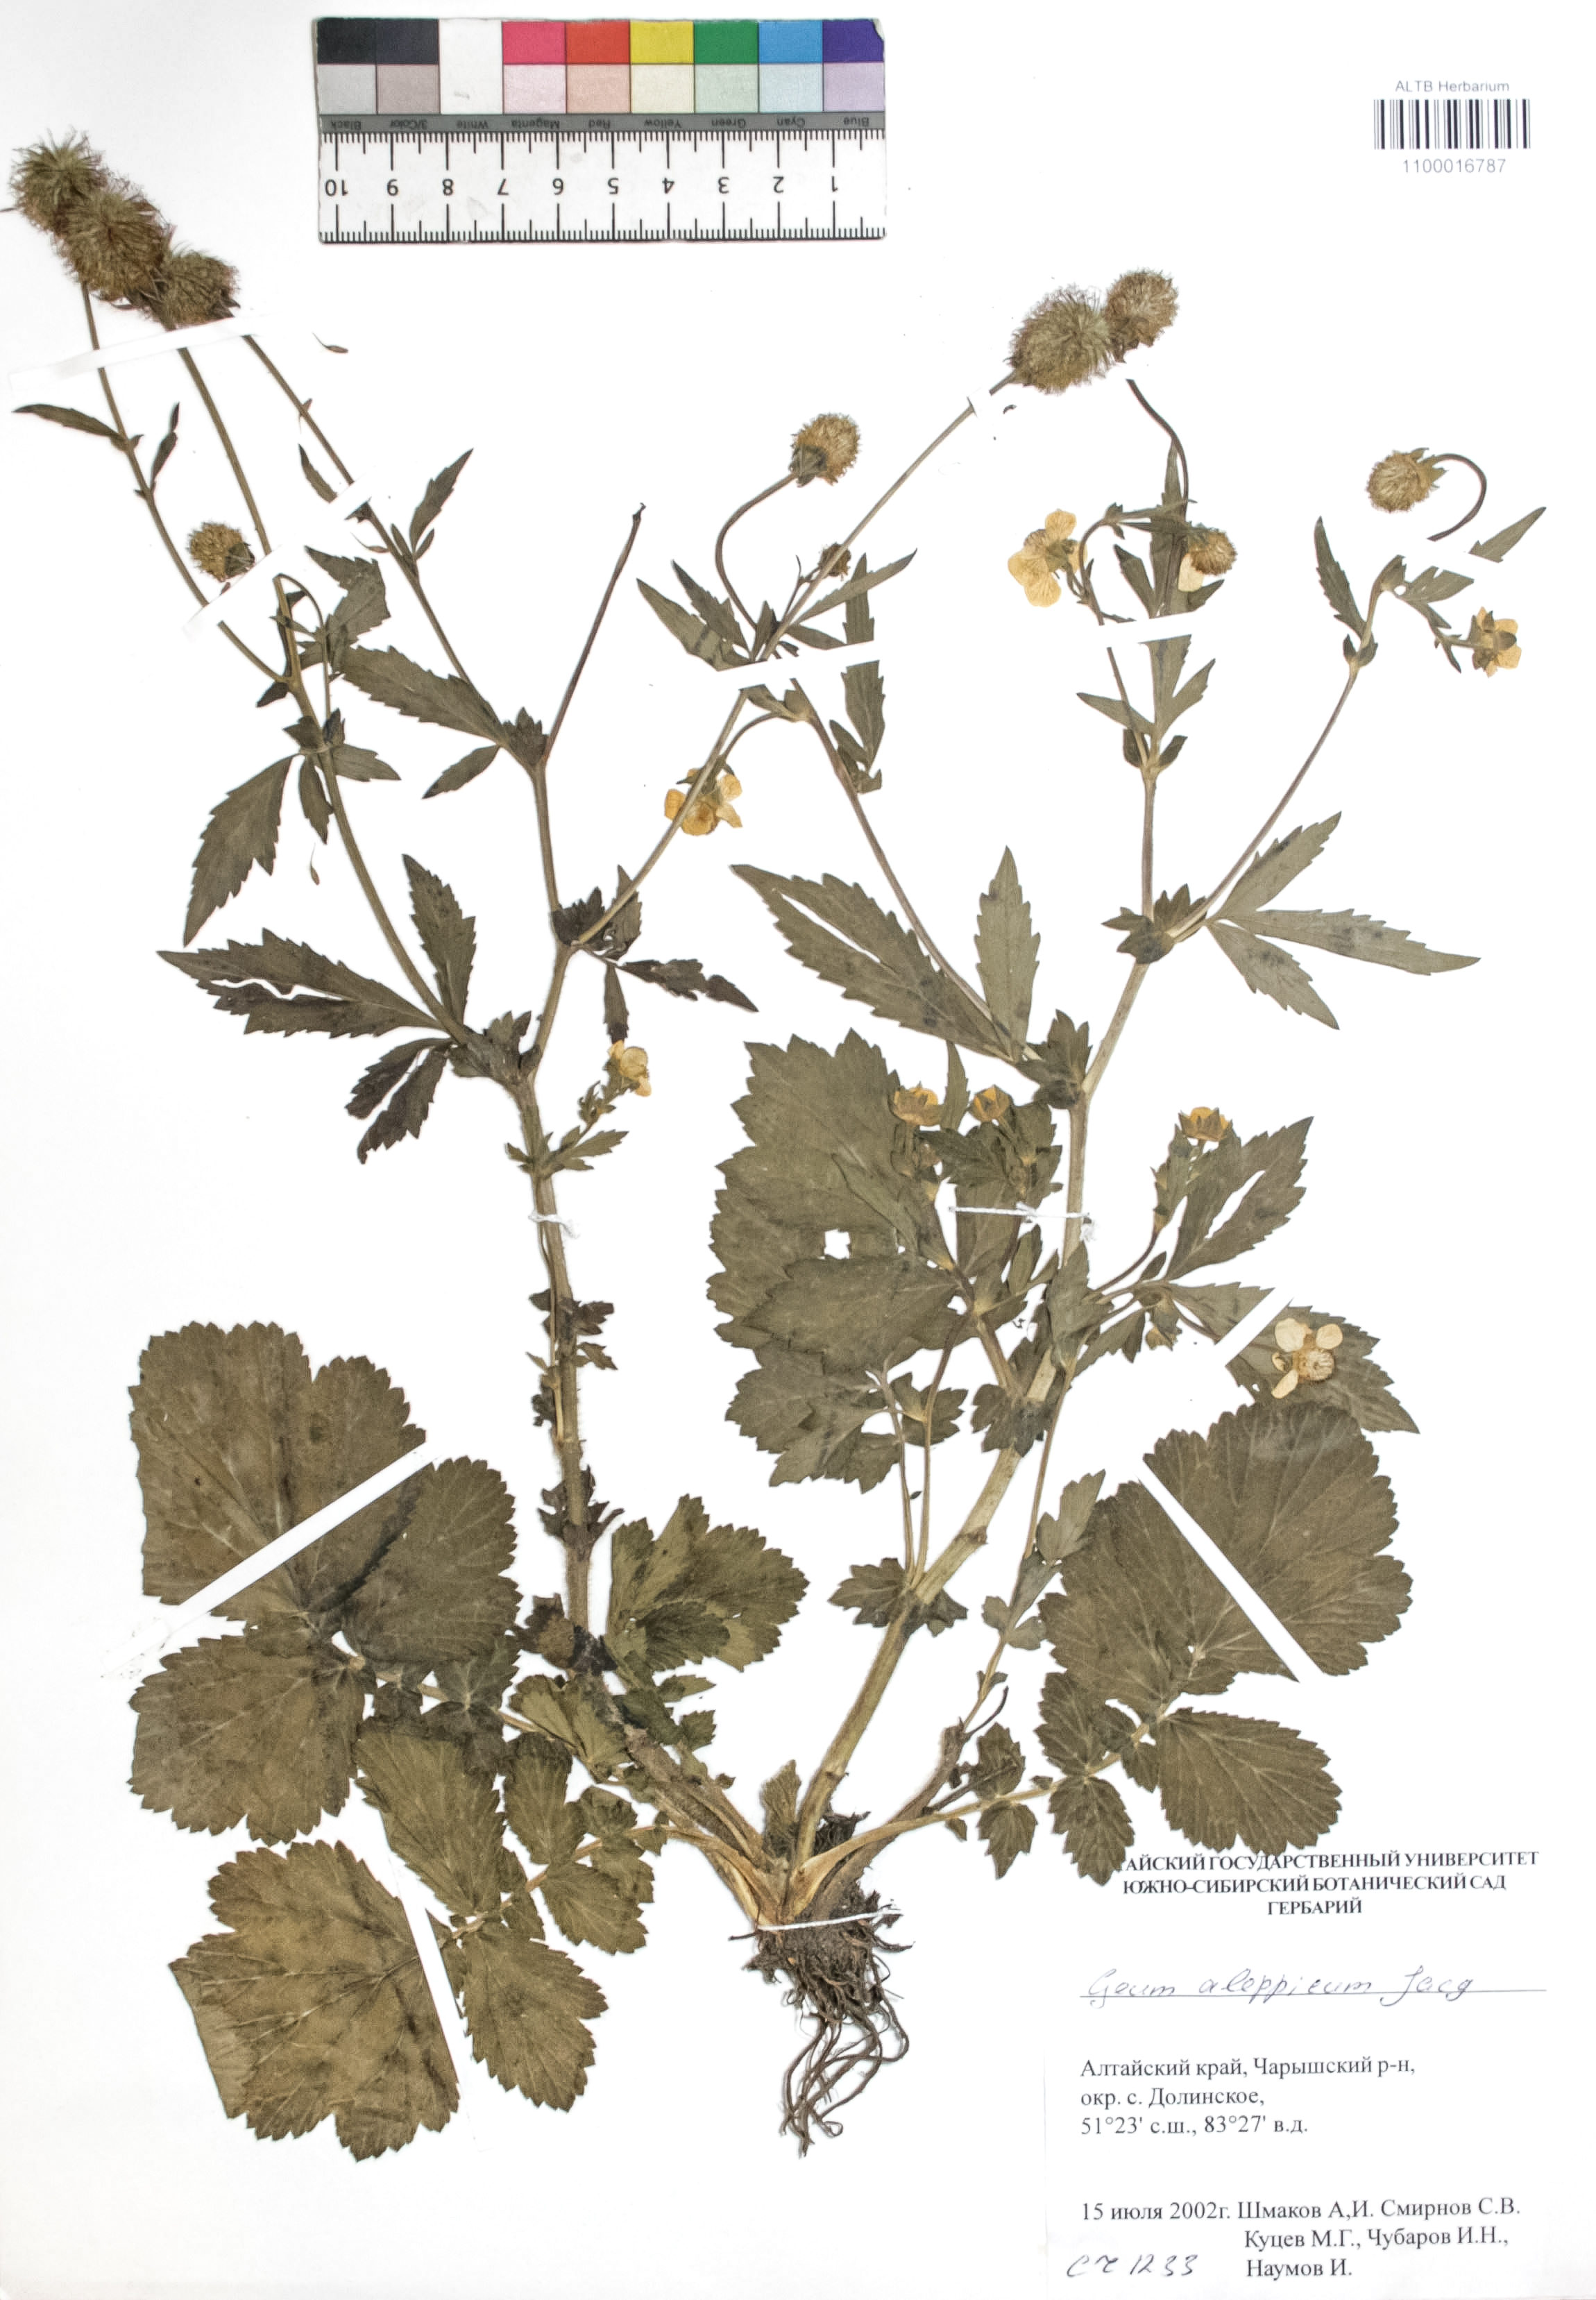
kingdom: Plantae
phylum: Tracheophyta
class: Magnoliopsida
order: Rosales
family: Rosaceae
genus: Geum
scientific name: Geum aleppicum
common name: Yellow avens
